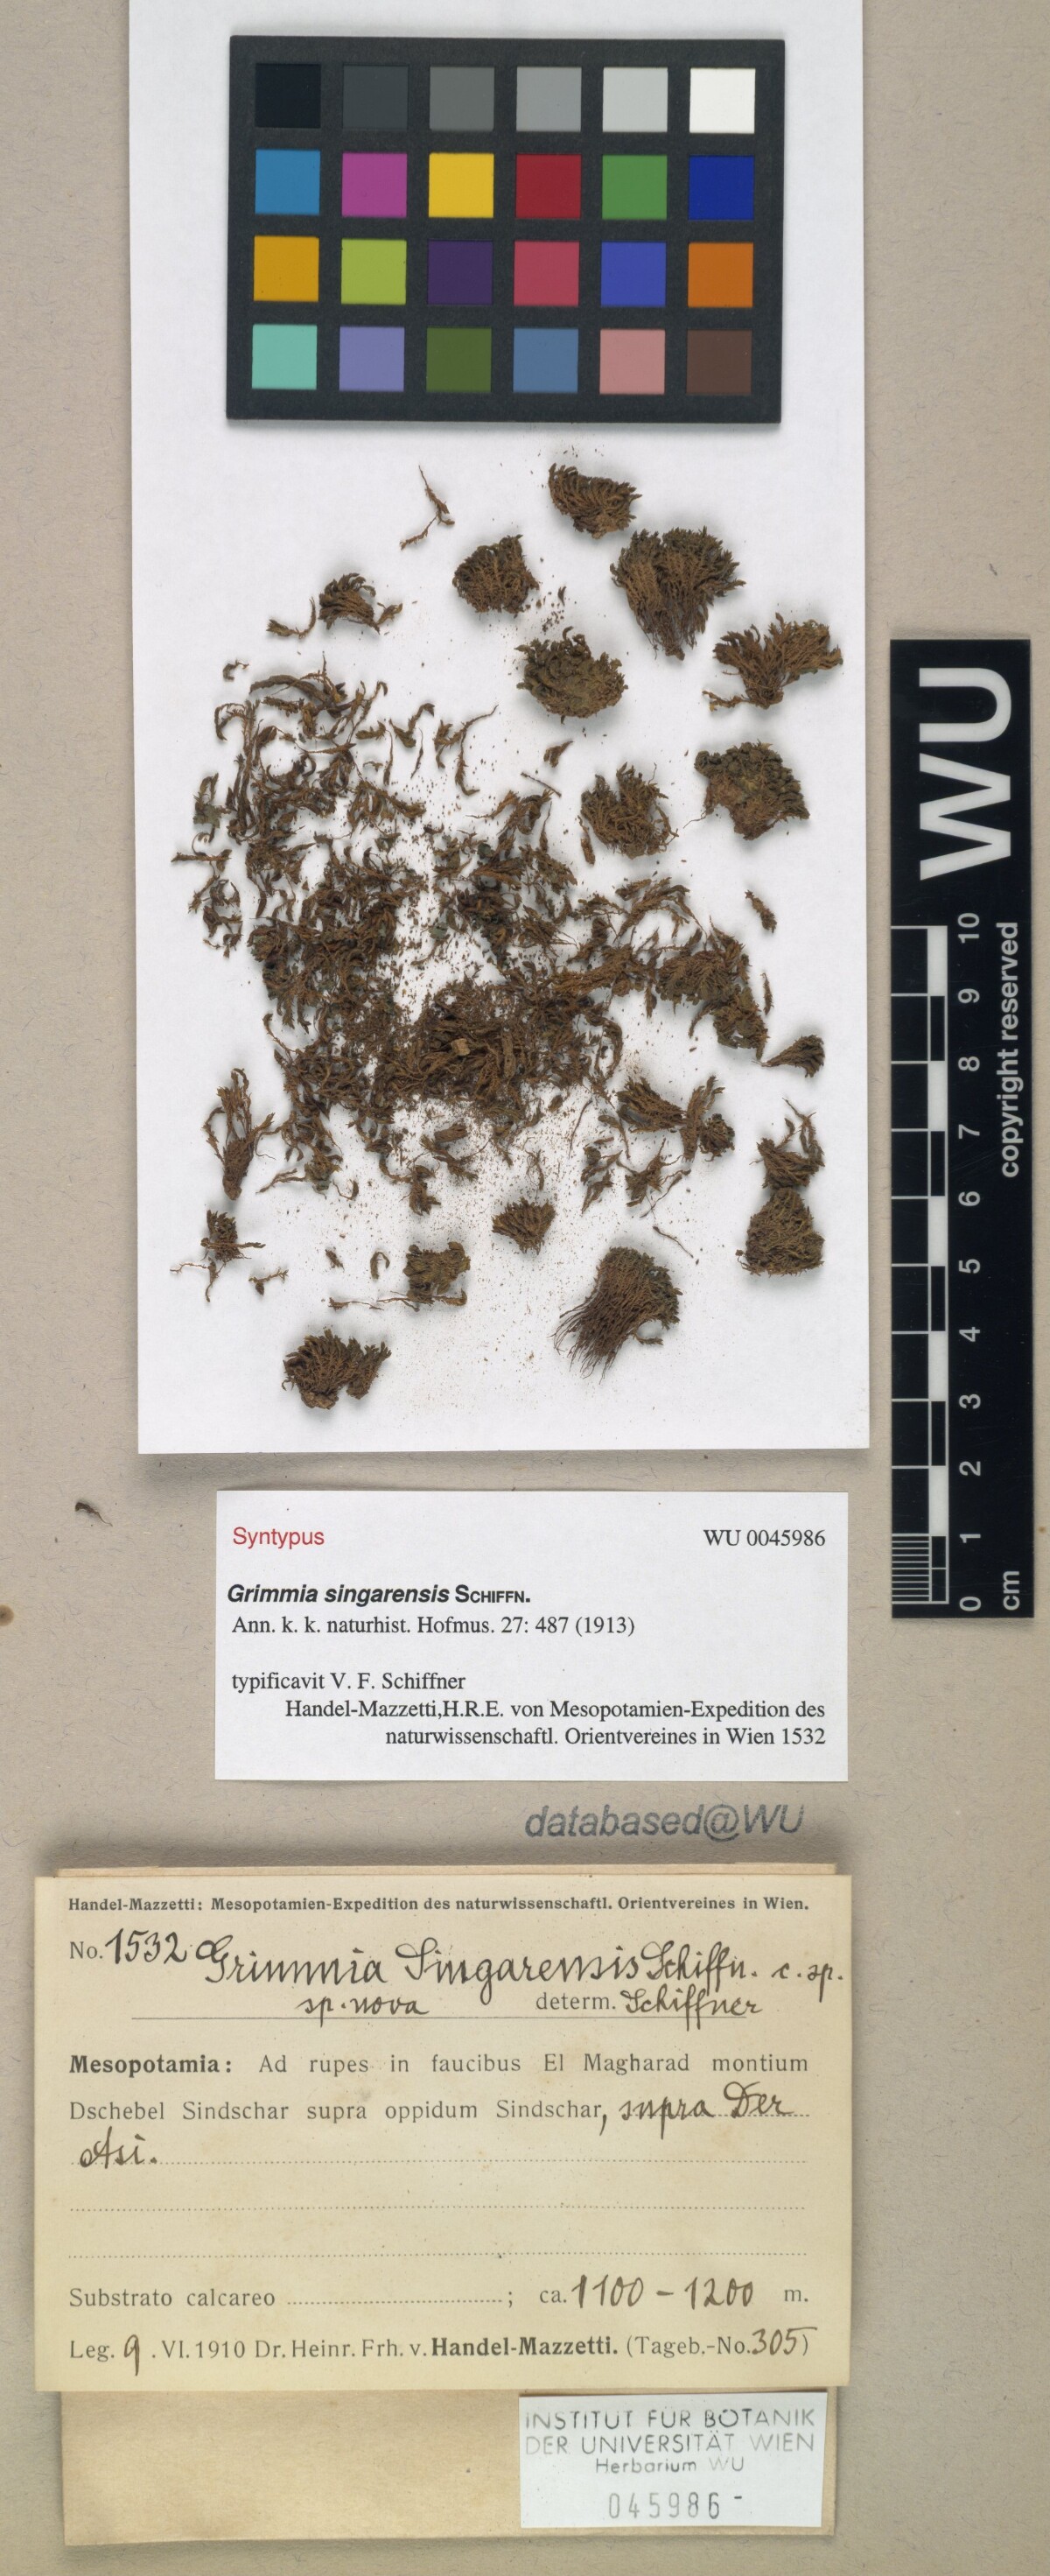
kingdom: Plantae
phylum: Bryophyta
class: Bryopsida
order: Grimmiales
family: Grimmiaceae
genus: Schistidium
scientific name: Schistidium helveticum
